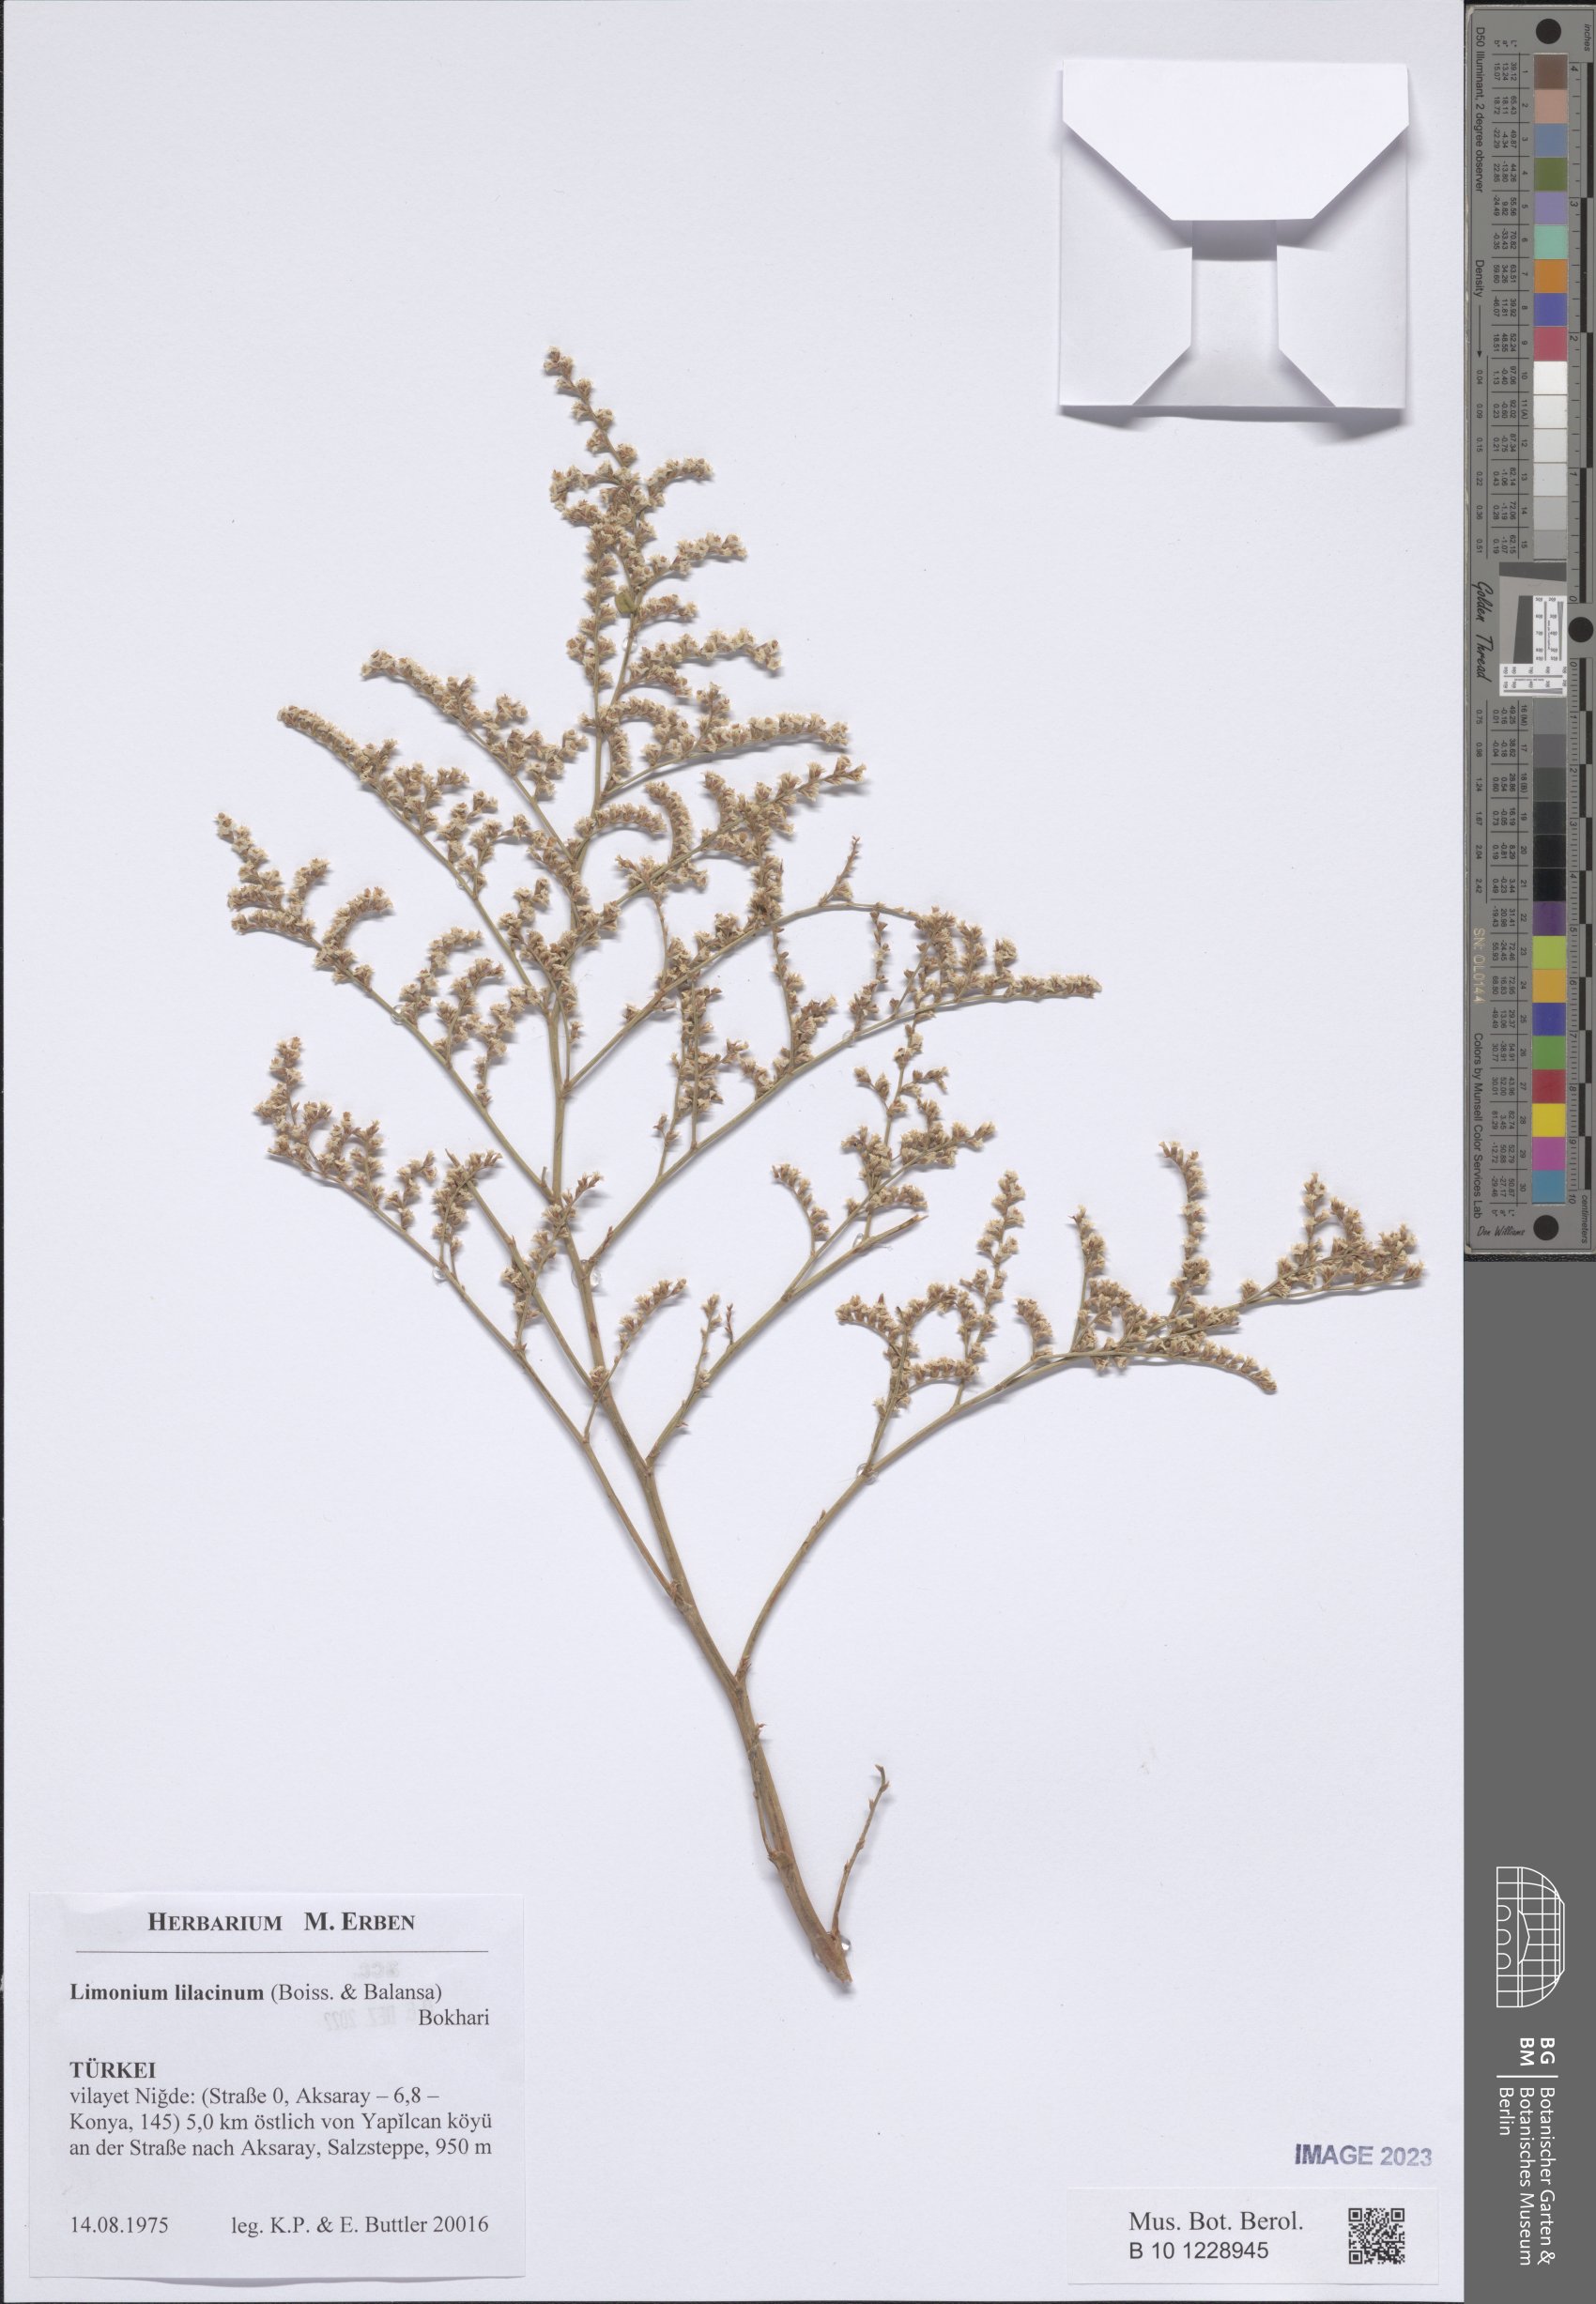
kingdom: Plantae
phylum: Tracheophyta
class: Magnoliopsida
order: Caryophyllales
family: Plumbaginaceae
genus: Limonium
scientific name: Limonium lilacinum
